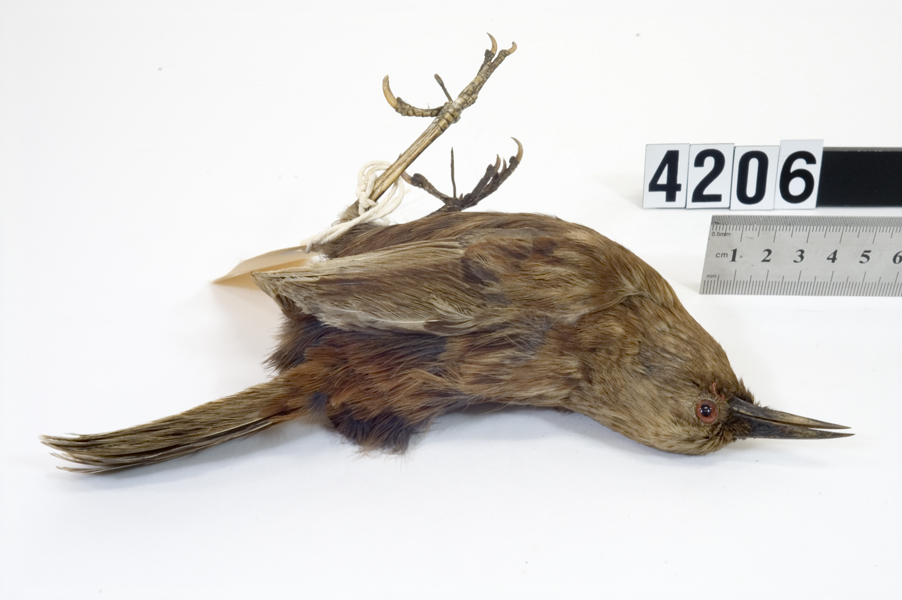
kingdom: Animalia
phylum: Chordata
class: Aves
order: Passeriformes
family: Callaeatidae
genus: Philesturnus
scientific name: Philesturnus carunculatus
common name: South island saddleback
